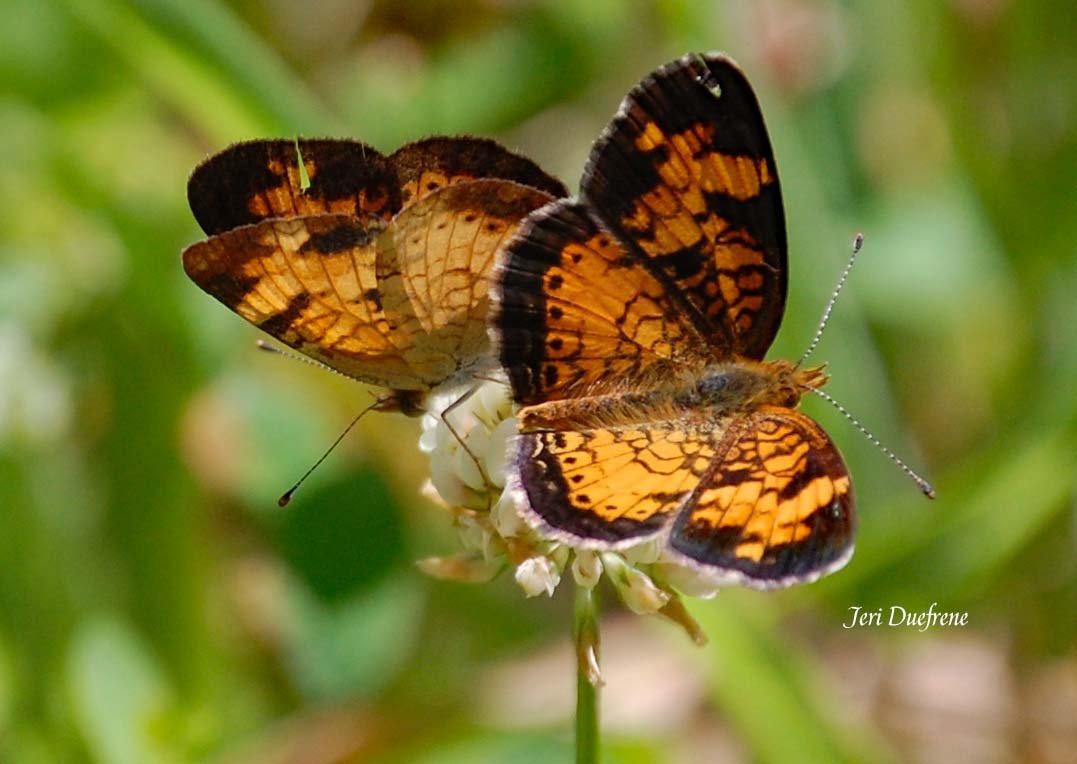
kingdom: Animalia
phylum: Arthropoda
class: Insecta
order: Lepidoptera
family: Nymphalidae
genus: Phyciodes
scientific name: Phyciodes tharos
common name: Pearl Crescent
